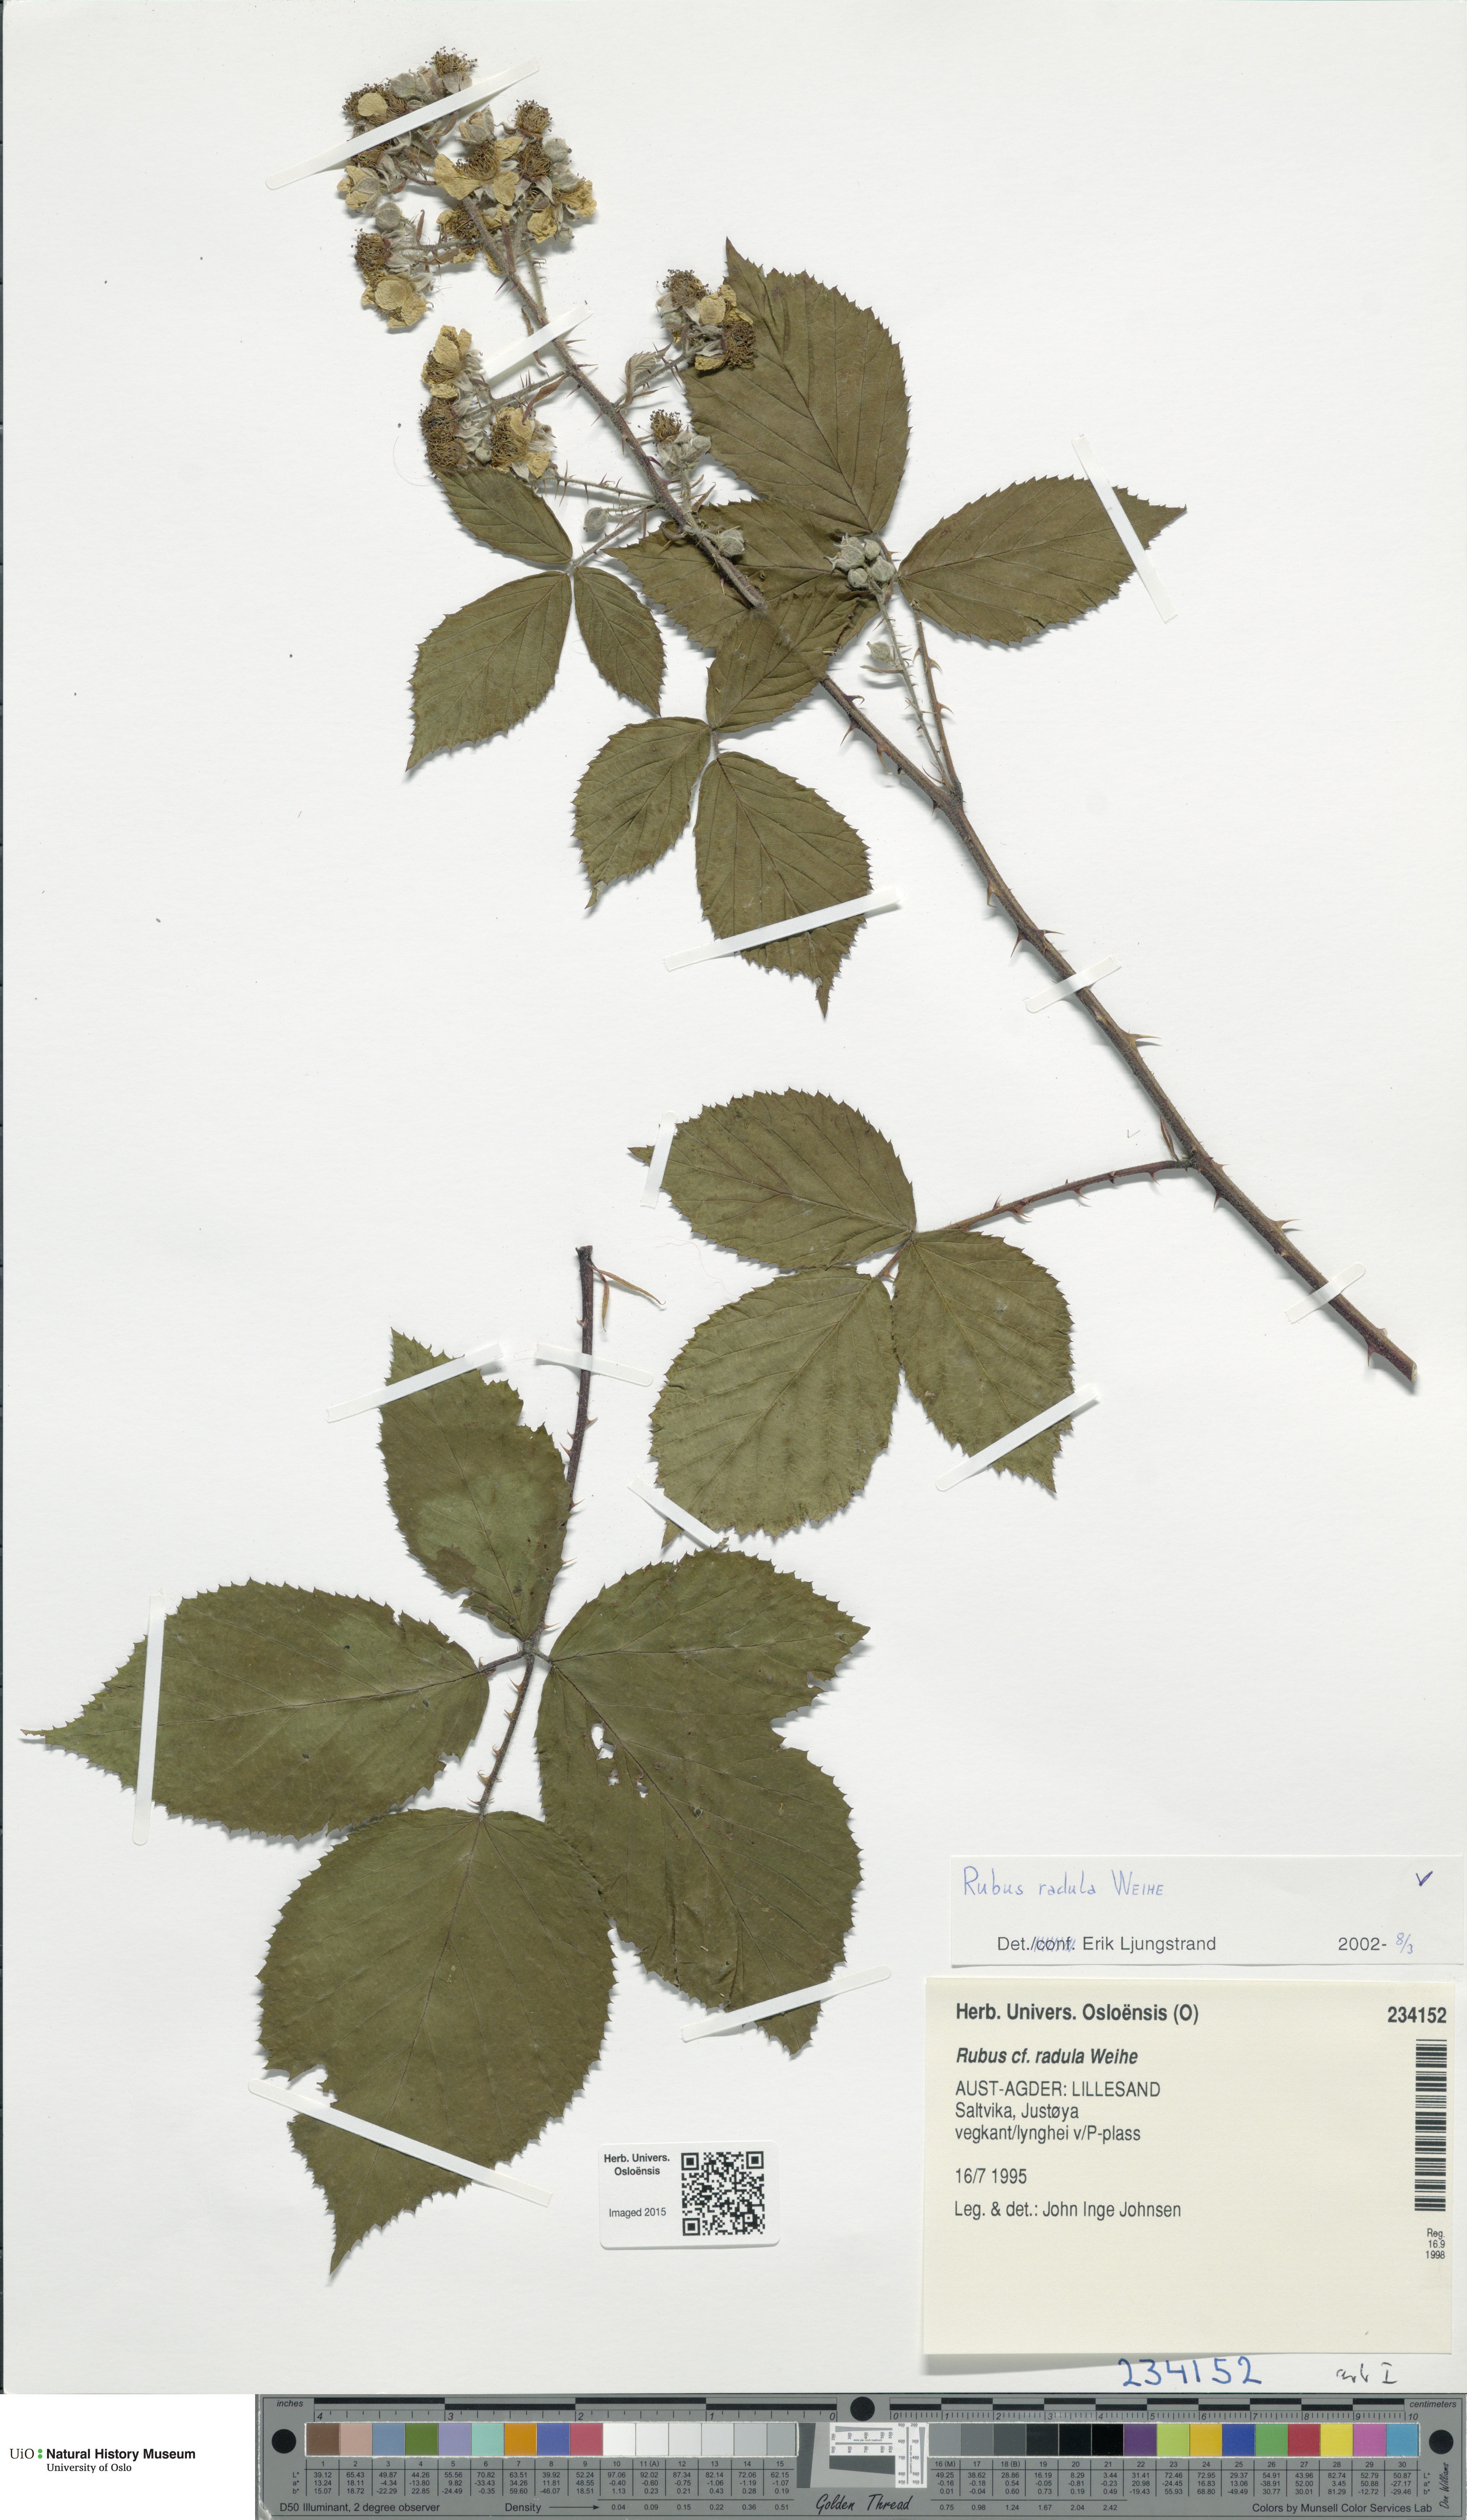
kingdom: Plantae
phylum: Tracheophyta
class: Magnoliopsida
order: Rosales
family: Rosaceae
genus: Rubus
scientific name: Rubus radula
